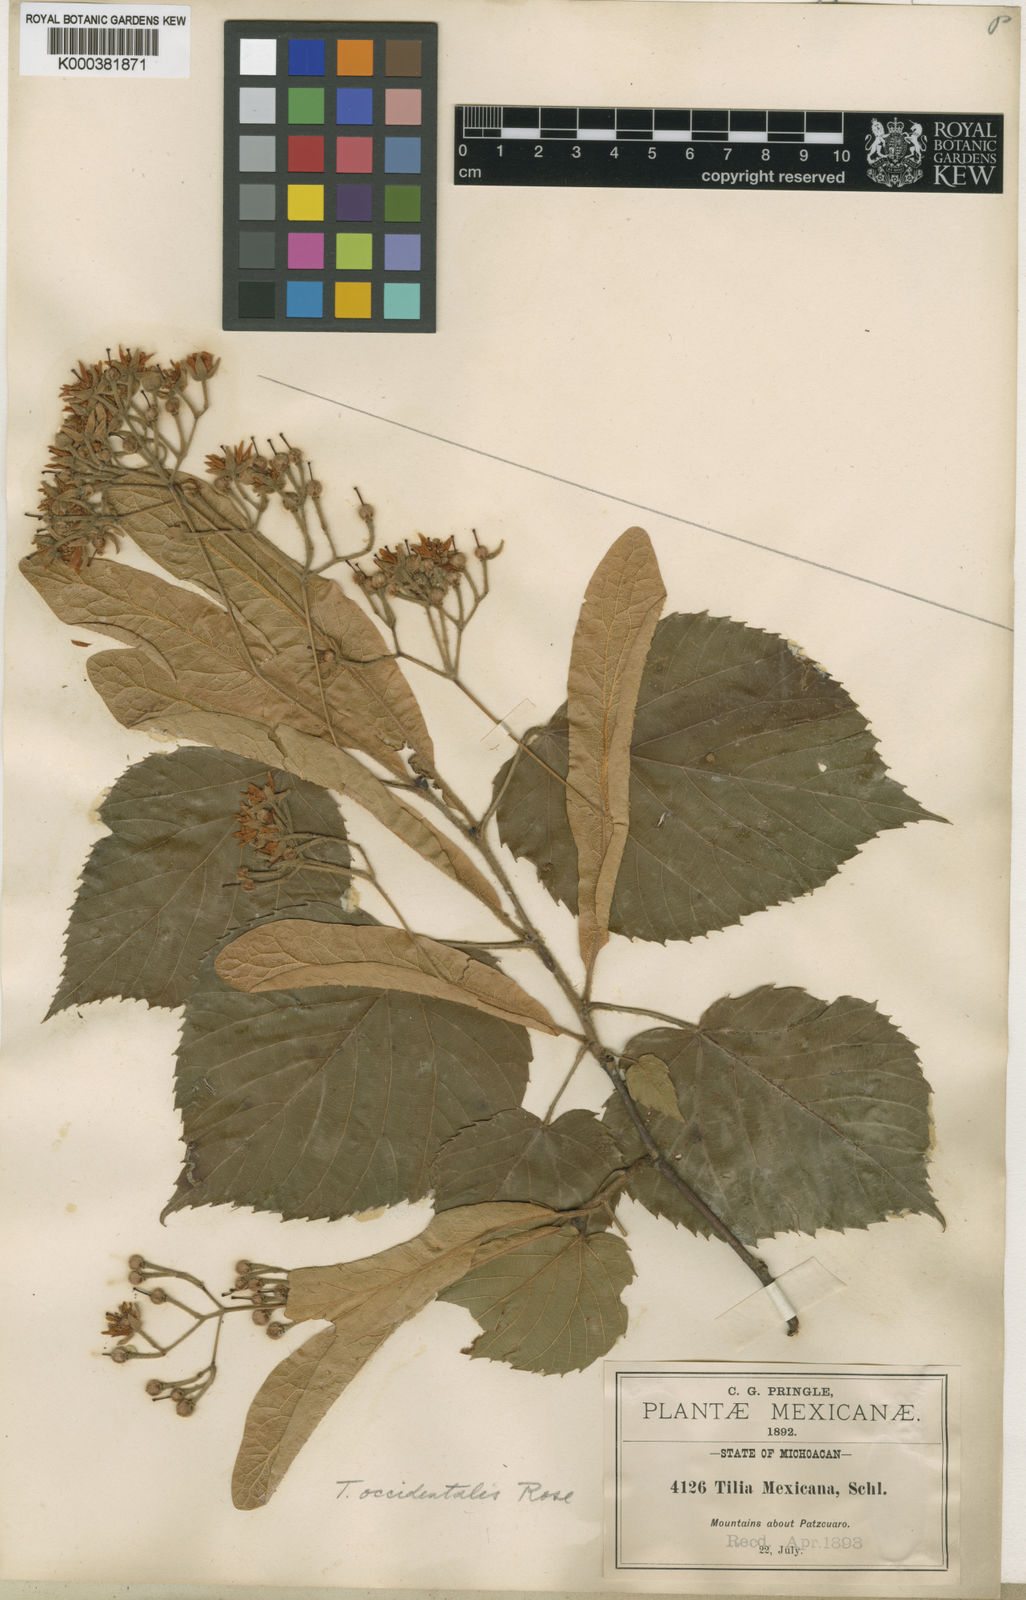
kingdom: Plantae
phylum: Tracheophyta
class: Magnoliopsida
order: Malvales
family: Malvaceae
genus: Tilia
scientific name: Tilia mexicana
